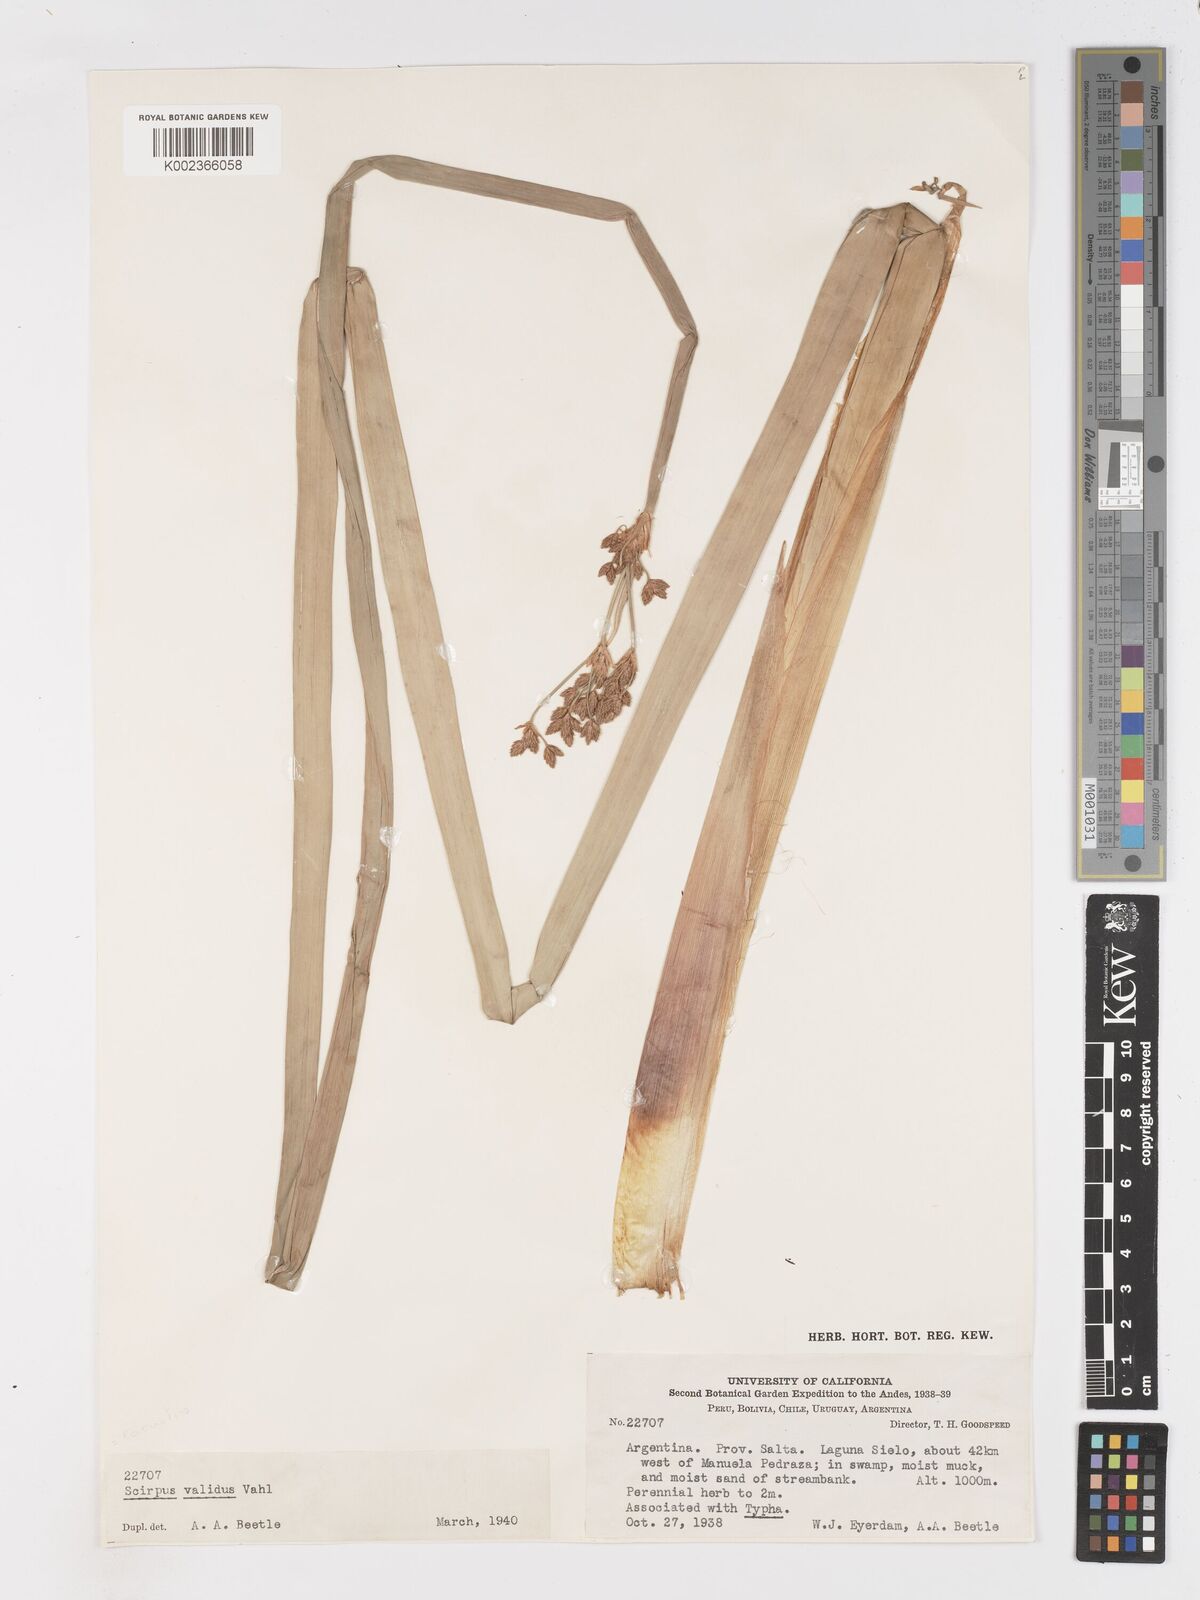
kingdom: Plantae
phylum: Tracheophyta
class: Liliopsida
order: Poales
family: Cyperaceae
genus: Schoenoplectus
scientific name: Schoenoplectus lacustris
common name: Common club-rush
